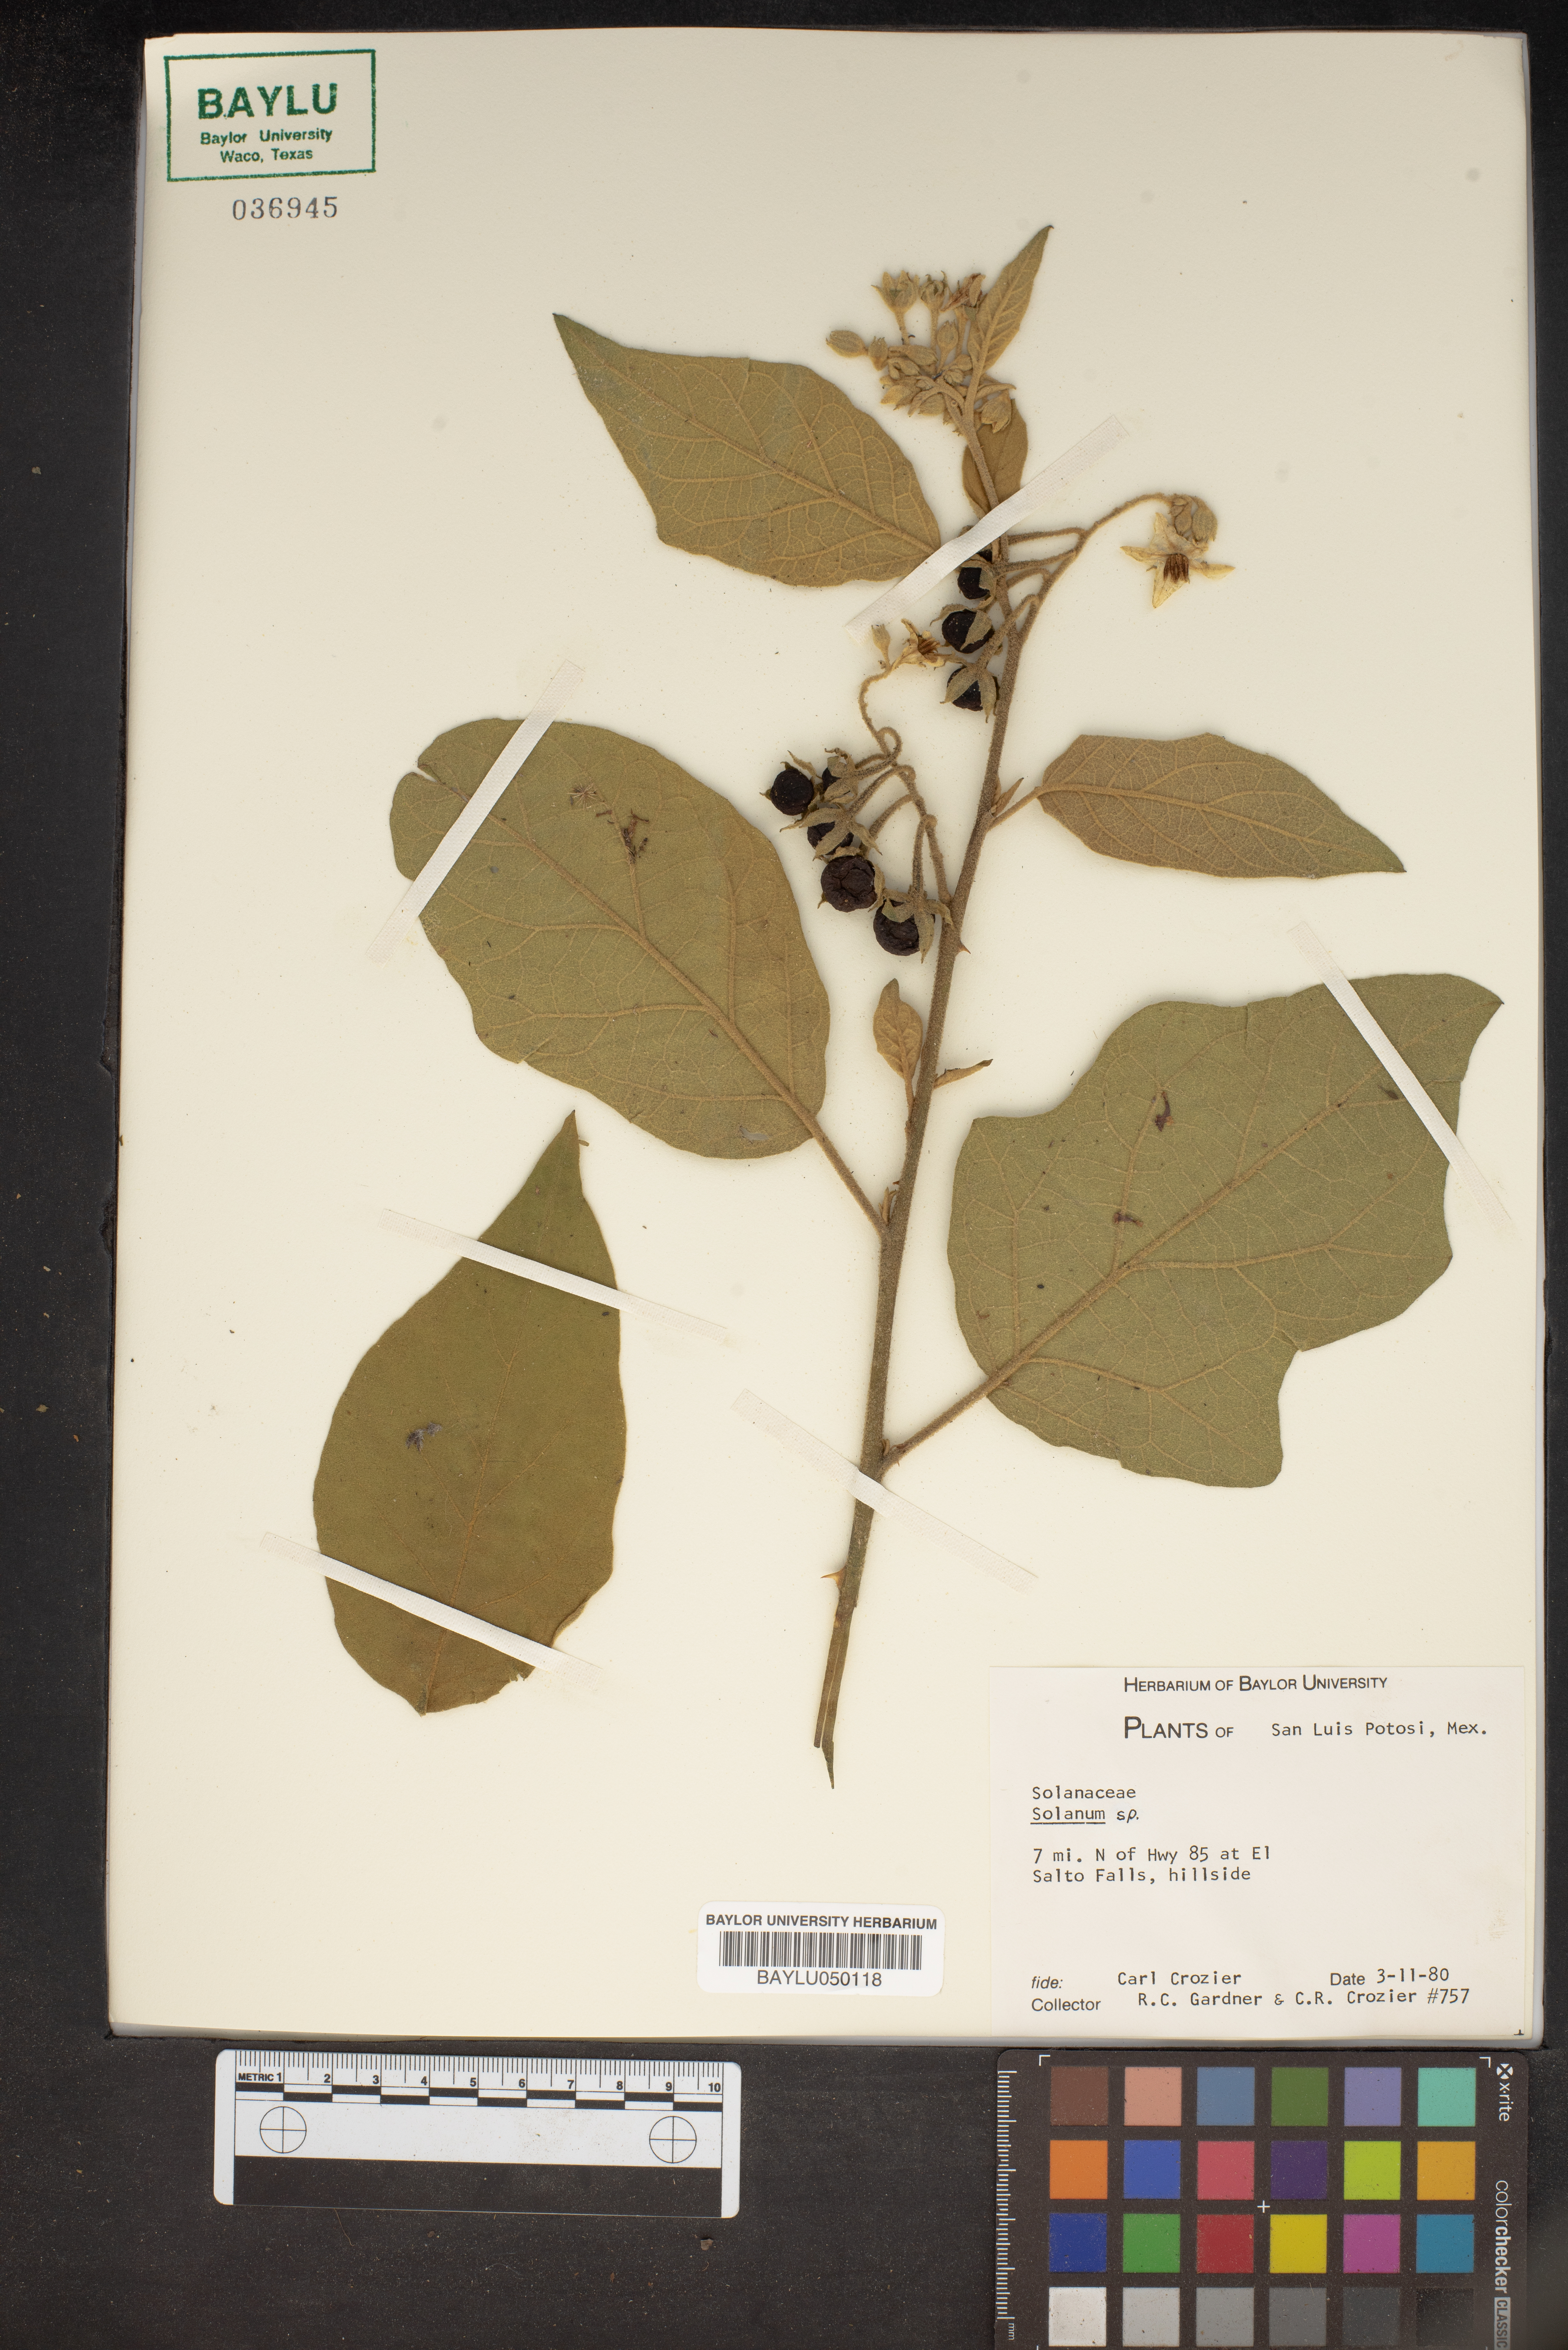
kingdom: Plantae
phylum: Tracheophyta
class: Magnoliopsida
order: Solanales
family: Solanaceae
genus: Solanum
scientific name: Solanum
